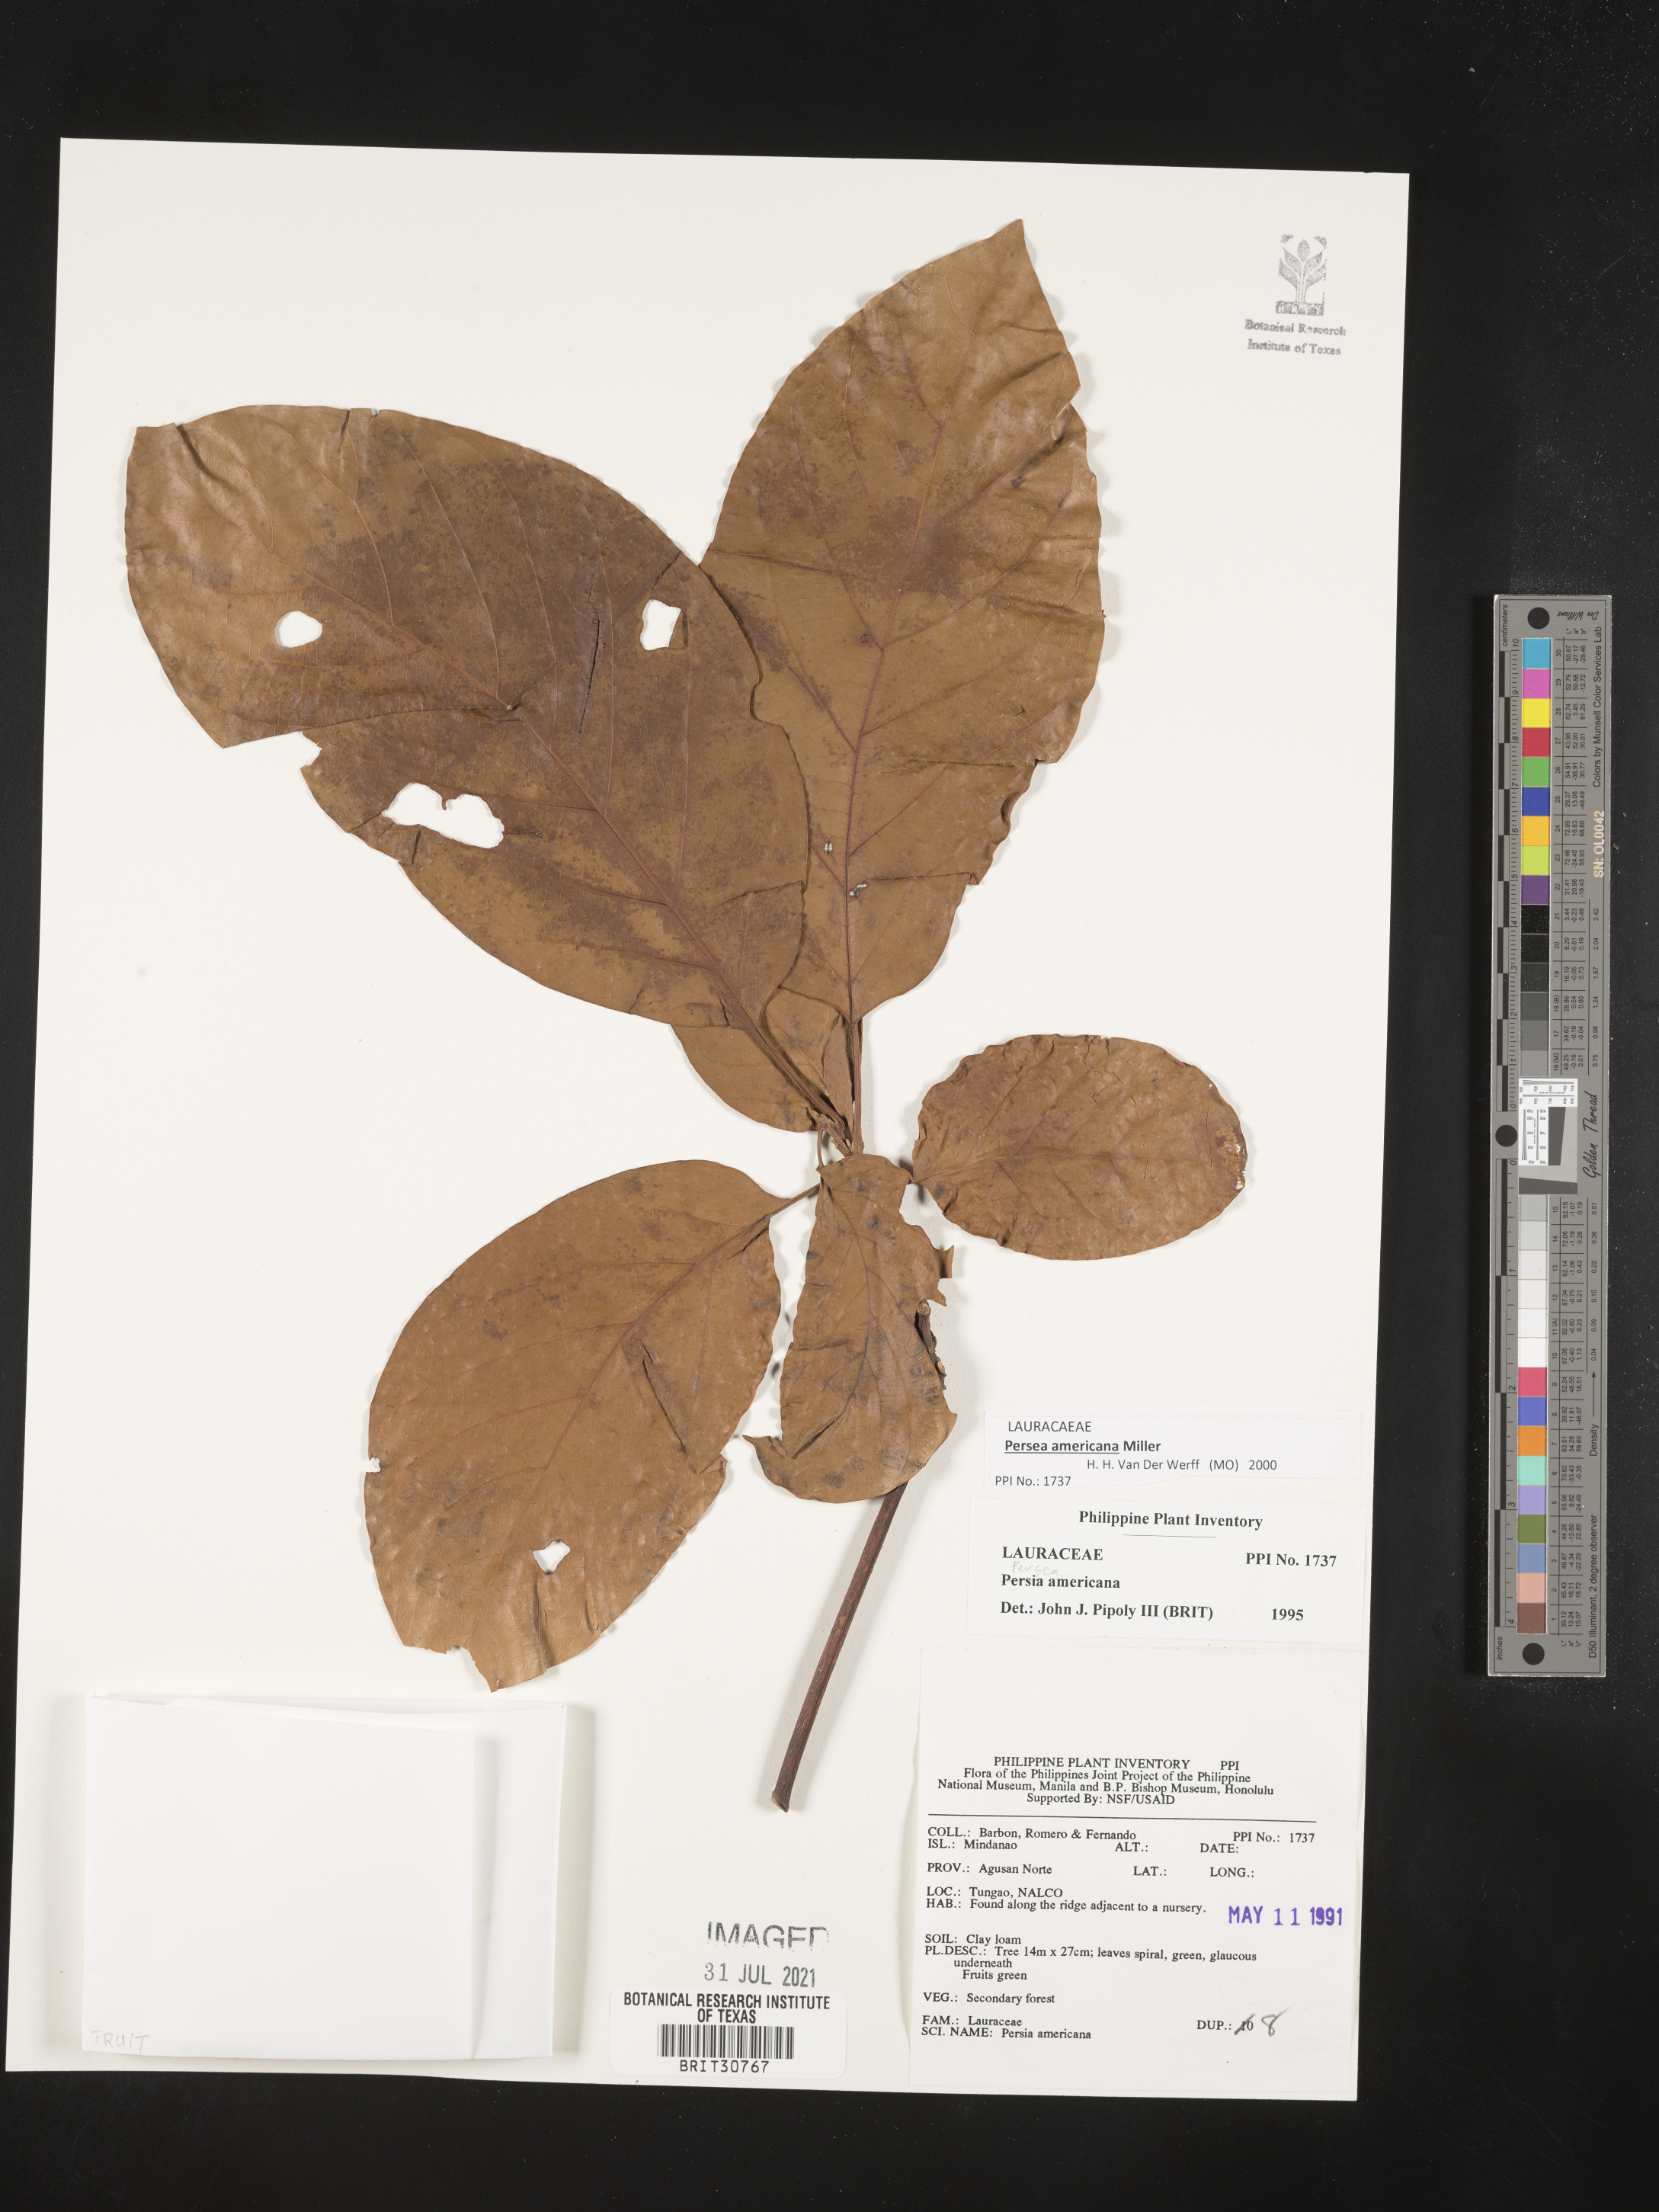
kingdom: Plantae
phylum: Tracheophyta
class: Magnoliopsida
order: Laurales
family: Lauraceae
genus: Persea
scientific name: Persea americana
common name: Avocado
